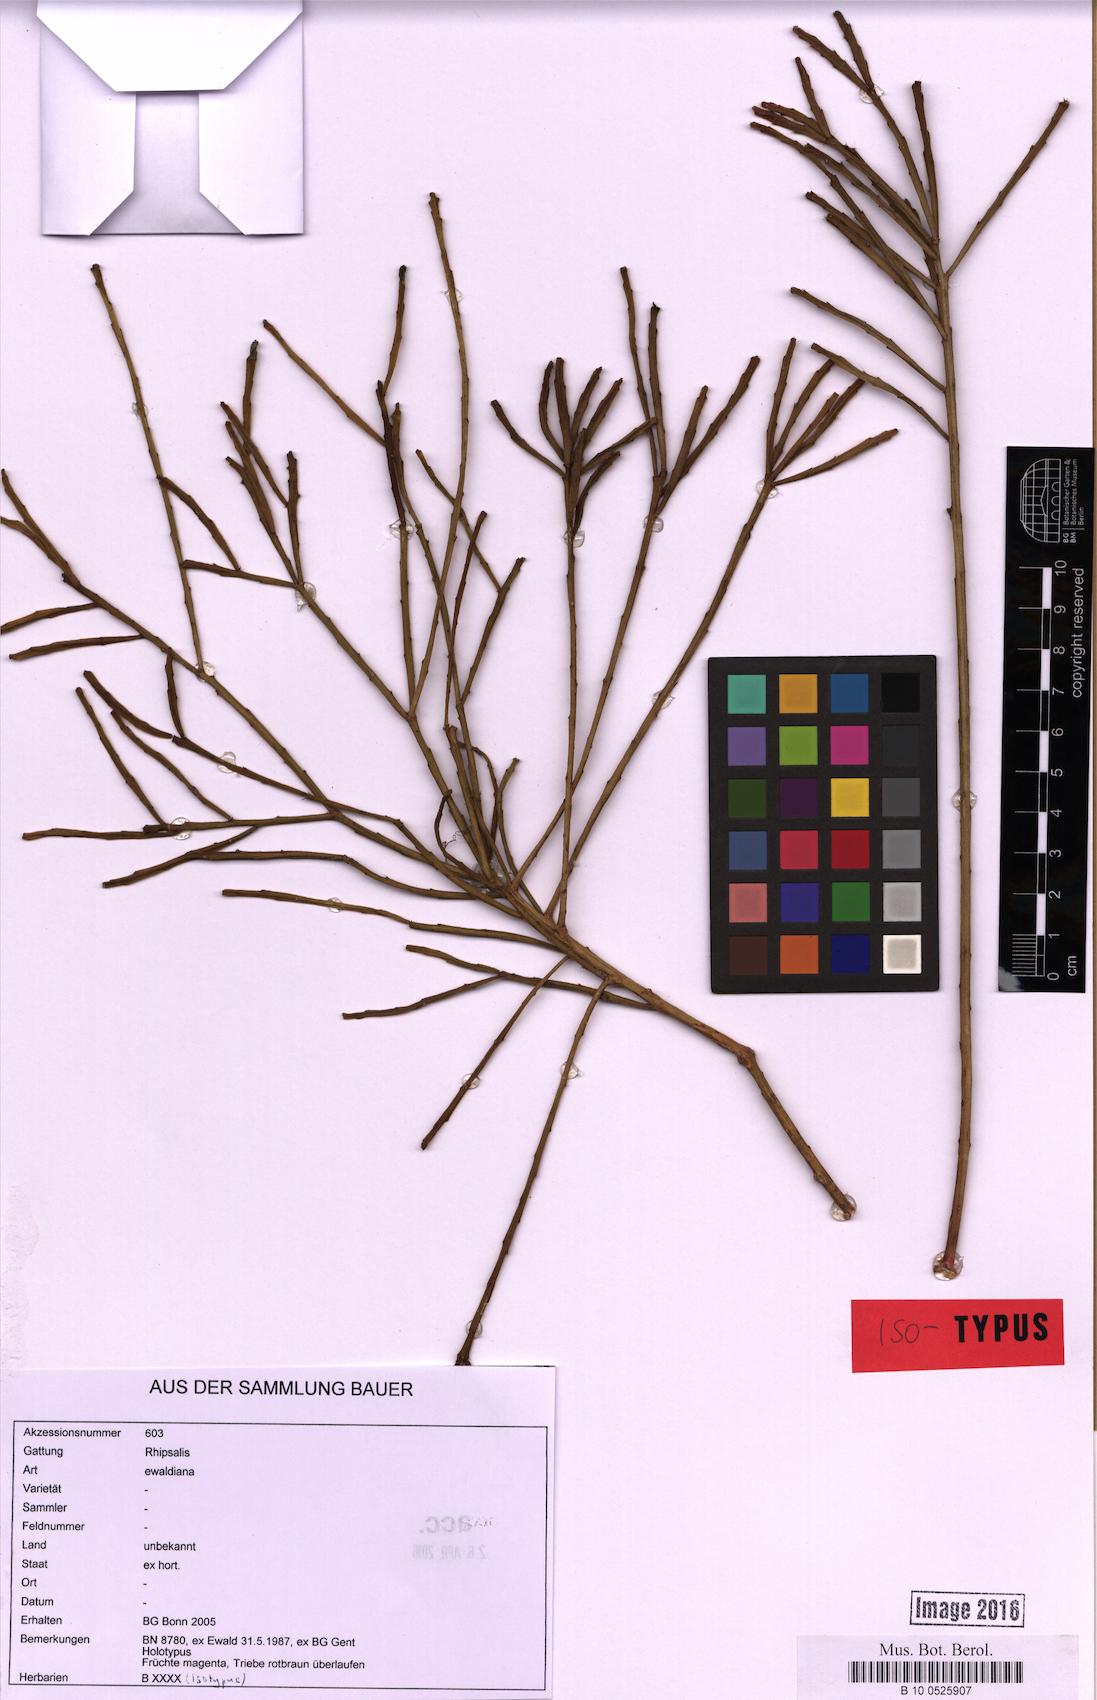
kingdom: Plantae
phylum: Tracheophyta
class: Magnoliopsida
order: Caryophyllales
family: Cactaceae
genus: Rhipsalis
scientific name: Rhipsalis ewaldiana
